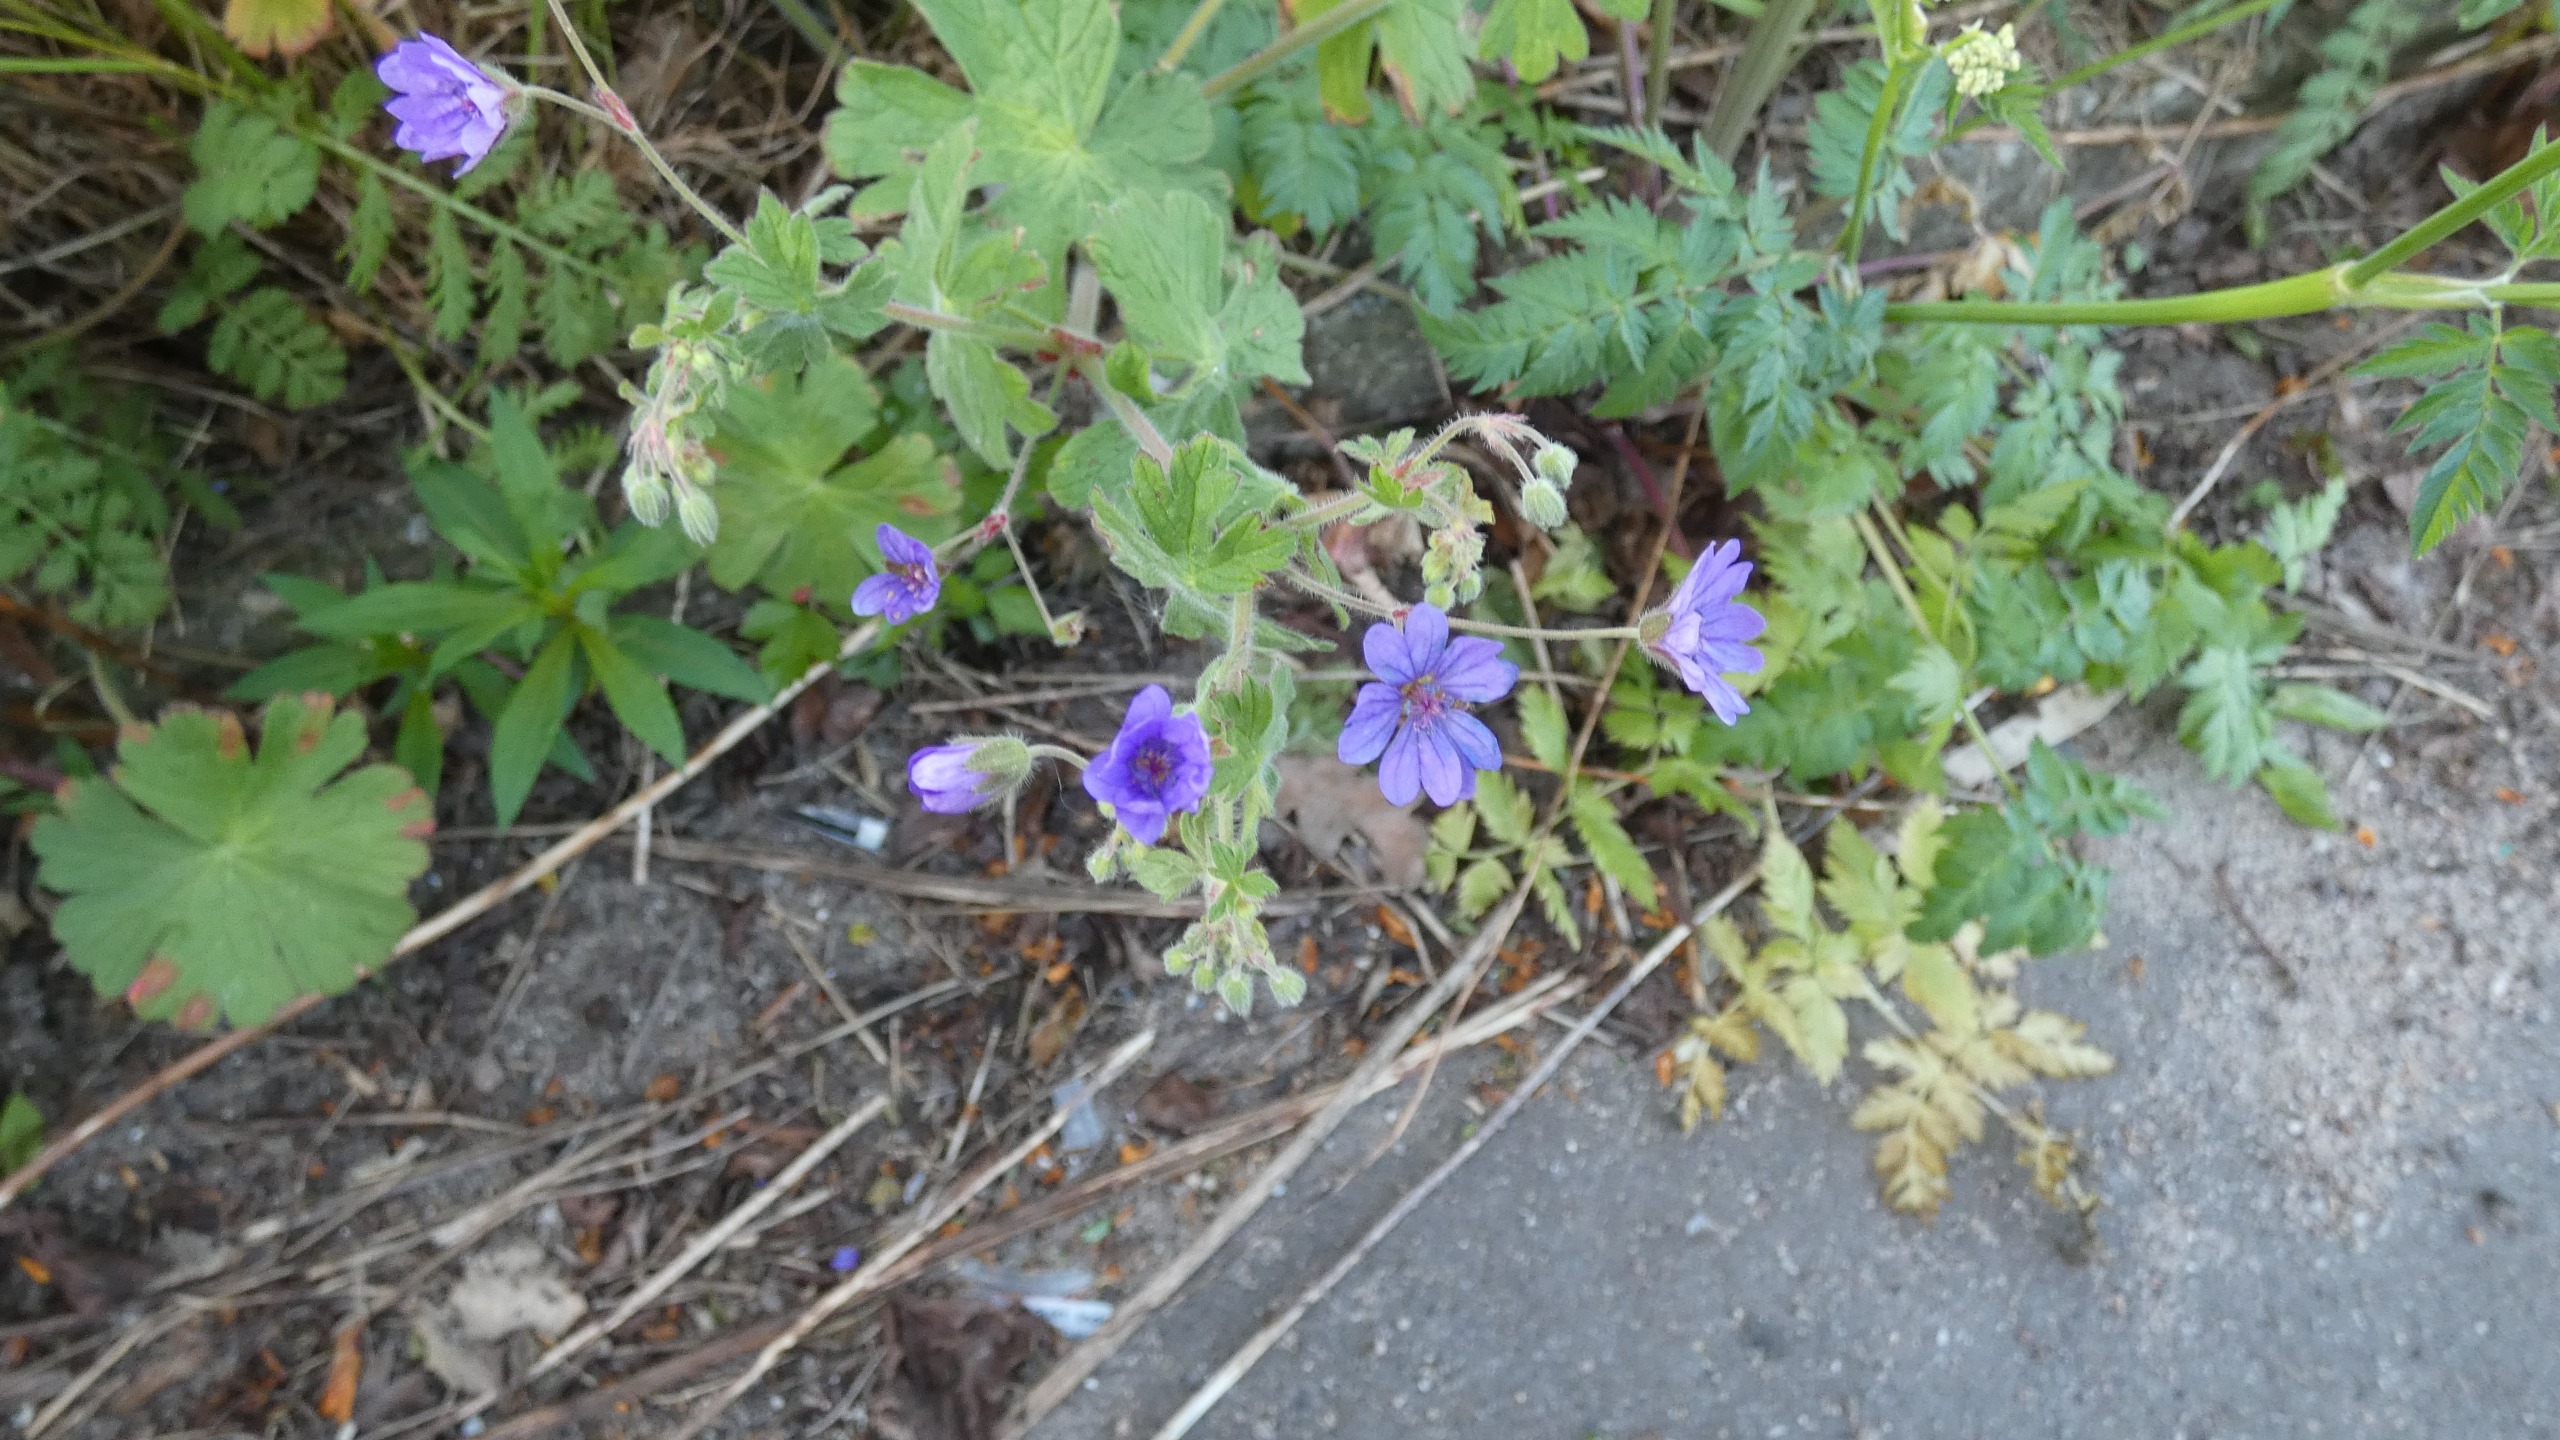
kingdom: Plantae
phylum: Tracheophyta
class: Magnoliopsida
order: Geraniales
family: Geraniaceae
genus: Geranium
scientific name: Geranium pyrenaicum
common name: Pyrenæisk storkenæb
